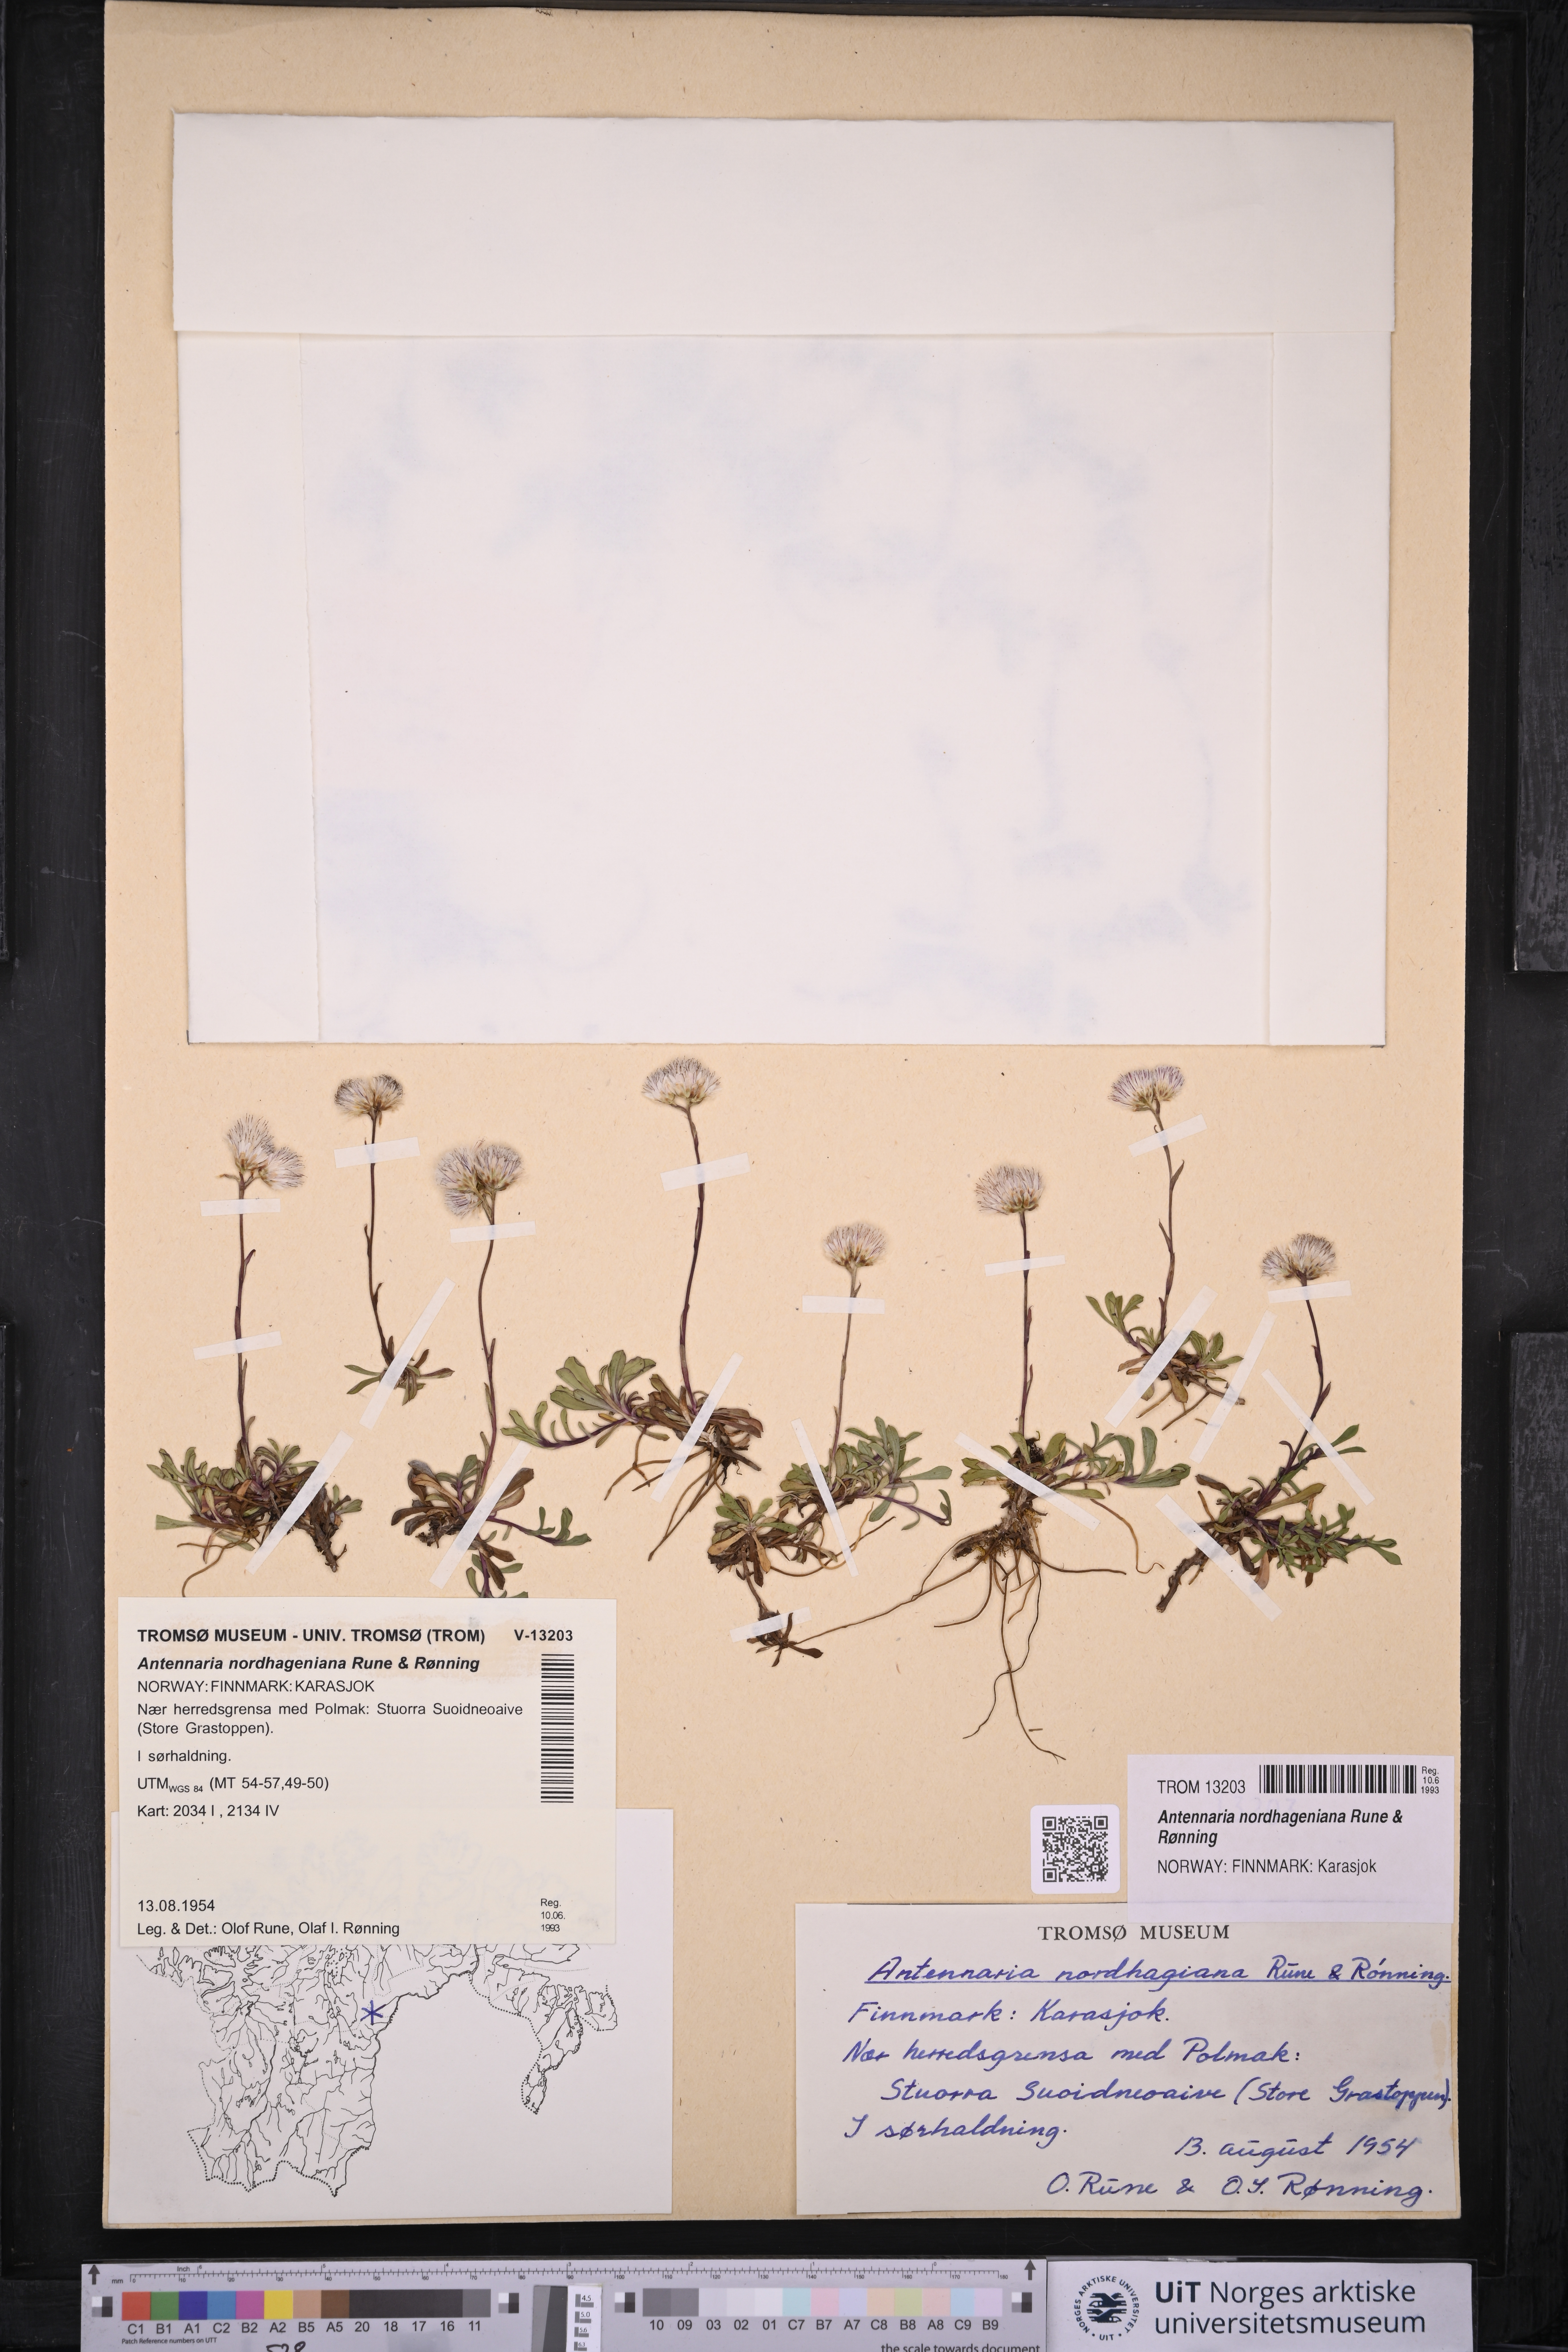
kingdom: Plantae
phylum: Tracheophyta
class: Magnoliopsida
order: Asterales
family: Asteraceae
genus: Antennaria
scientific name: Antennaria nordhageniana
